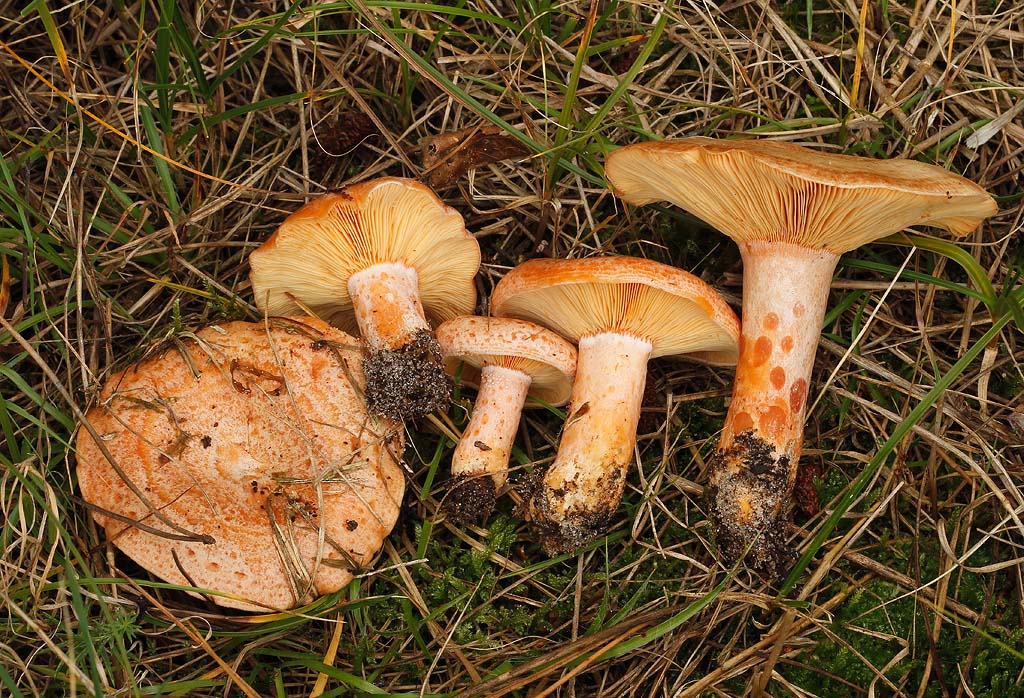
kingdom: Fungi
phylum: Basidiomycota
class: Agaricomycetes
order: Russulales
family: Russulaceae
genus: Lactarius
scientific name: Lactarius deliciosus
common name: velsmagende mælkehat
